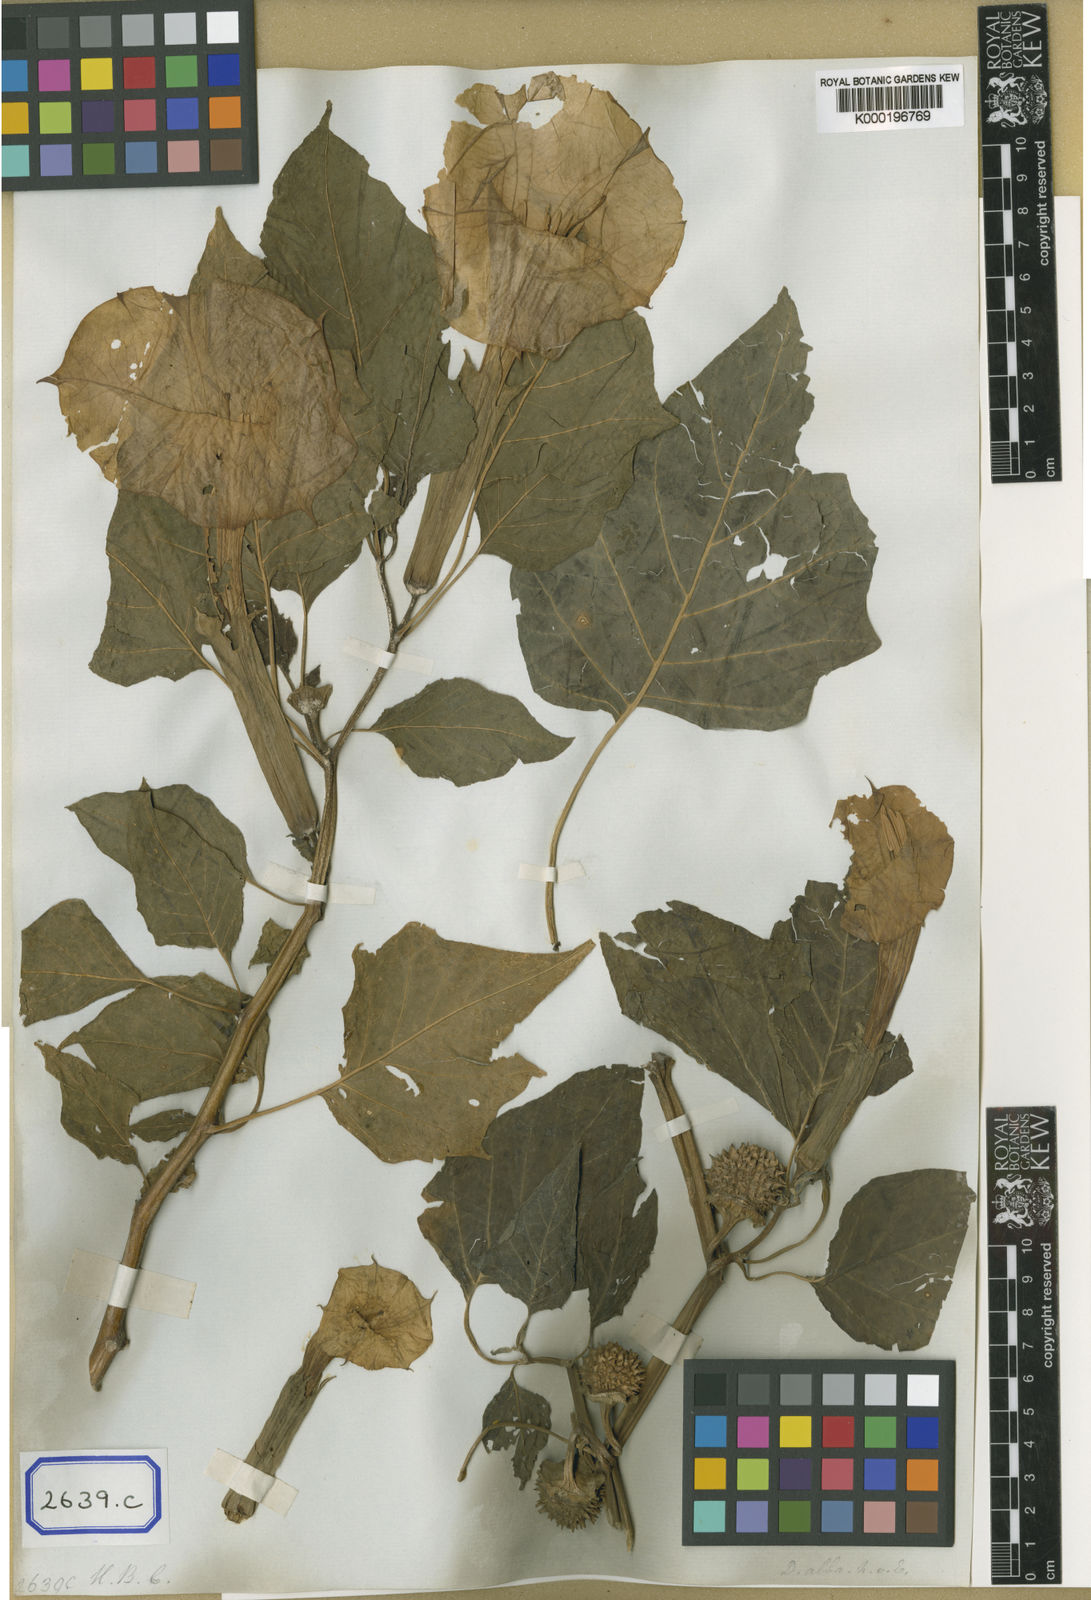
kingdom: Plantae
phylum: Tracheophyta
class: Magnoliopsida
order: Solanales
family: Solanaceae
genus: Datura
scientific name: Datura
